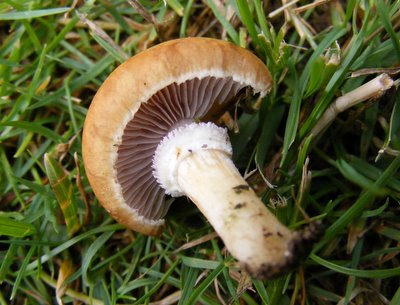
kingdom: Fungi
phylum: Basidiomycota
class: Agaricomycetes
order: Agaricales
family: Hymenogastraceae
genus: Psilocybe
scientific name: Psilocybe coronilla
